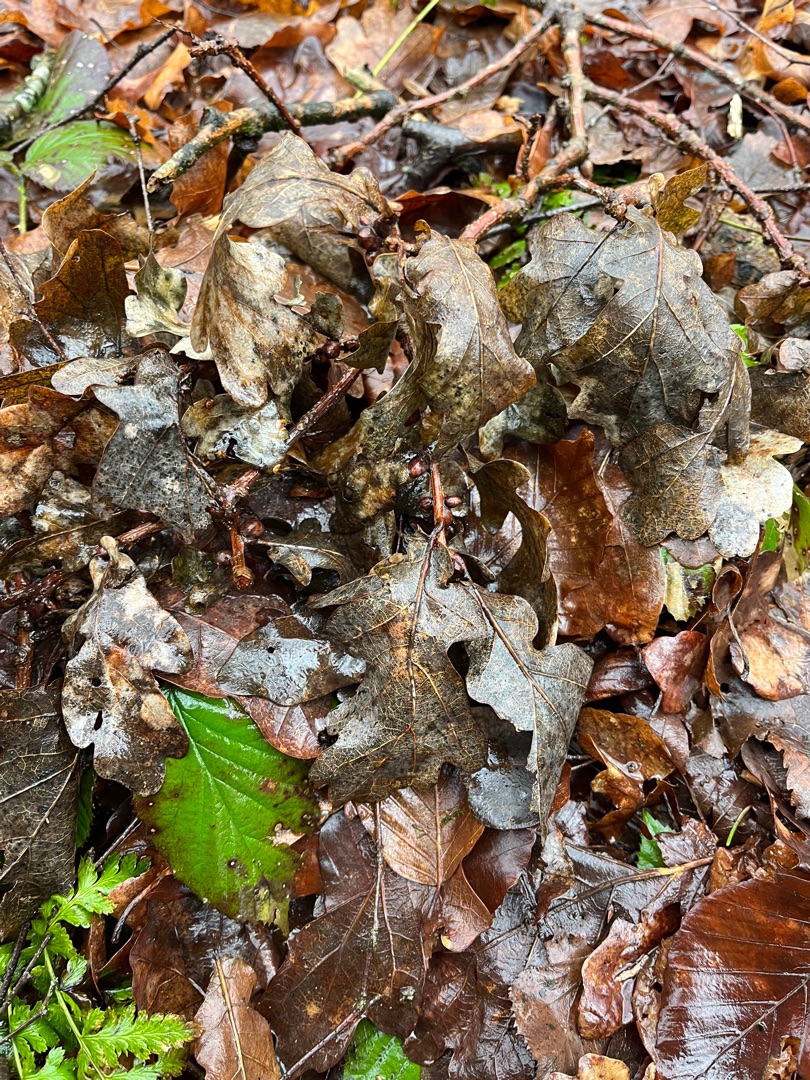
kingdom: Plantae
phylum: Tracheophyta
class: Magnoliopsida
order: Fagales
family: Fagaceae
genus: Quercus
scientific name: Quercus robur
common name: Stilk-eg/almindelig eg
